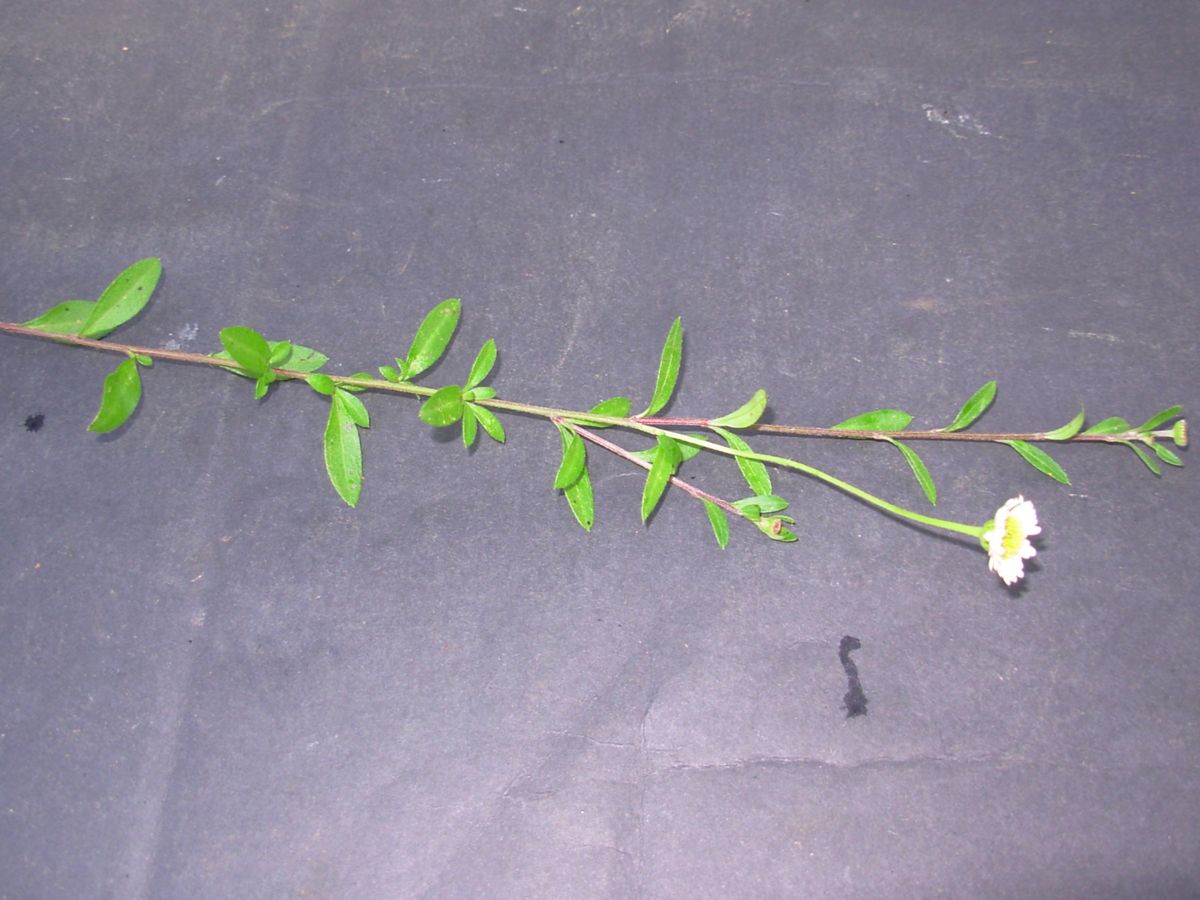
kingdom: Plantae
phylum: Tracheophyta
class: Magnoliopsida
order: Asterales
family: Asteraceae
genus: Erigeron
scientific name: Erigeron karvinskianus
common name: Mexican fleabane
